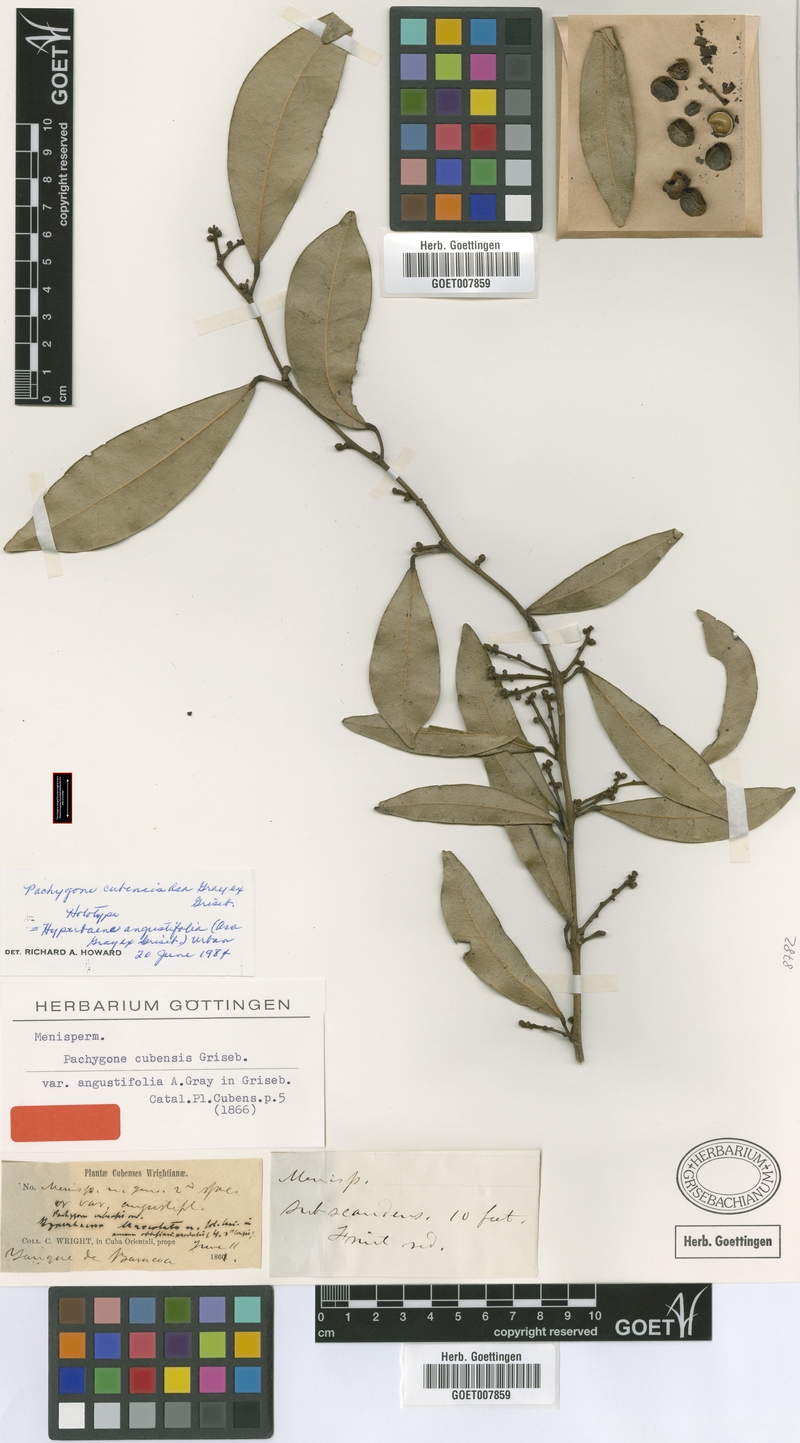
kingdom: Plantae
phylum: Tracheophyta
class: Magnoliopsida
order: Ranunculales
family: Menispermaceae
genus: Hyperbaena
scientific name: Hyperbaena axilliflora
